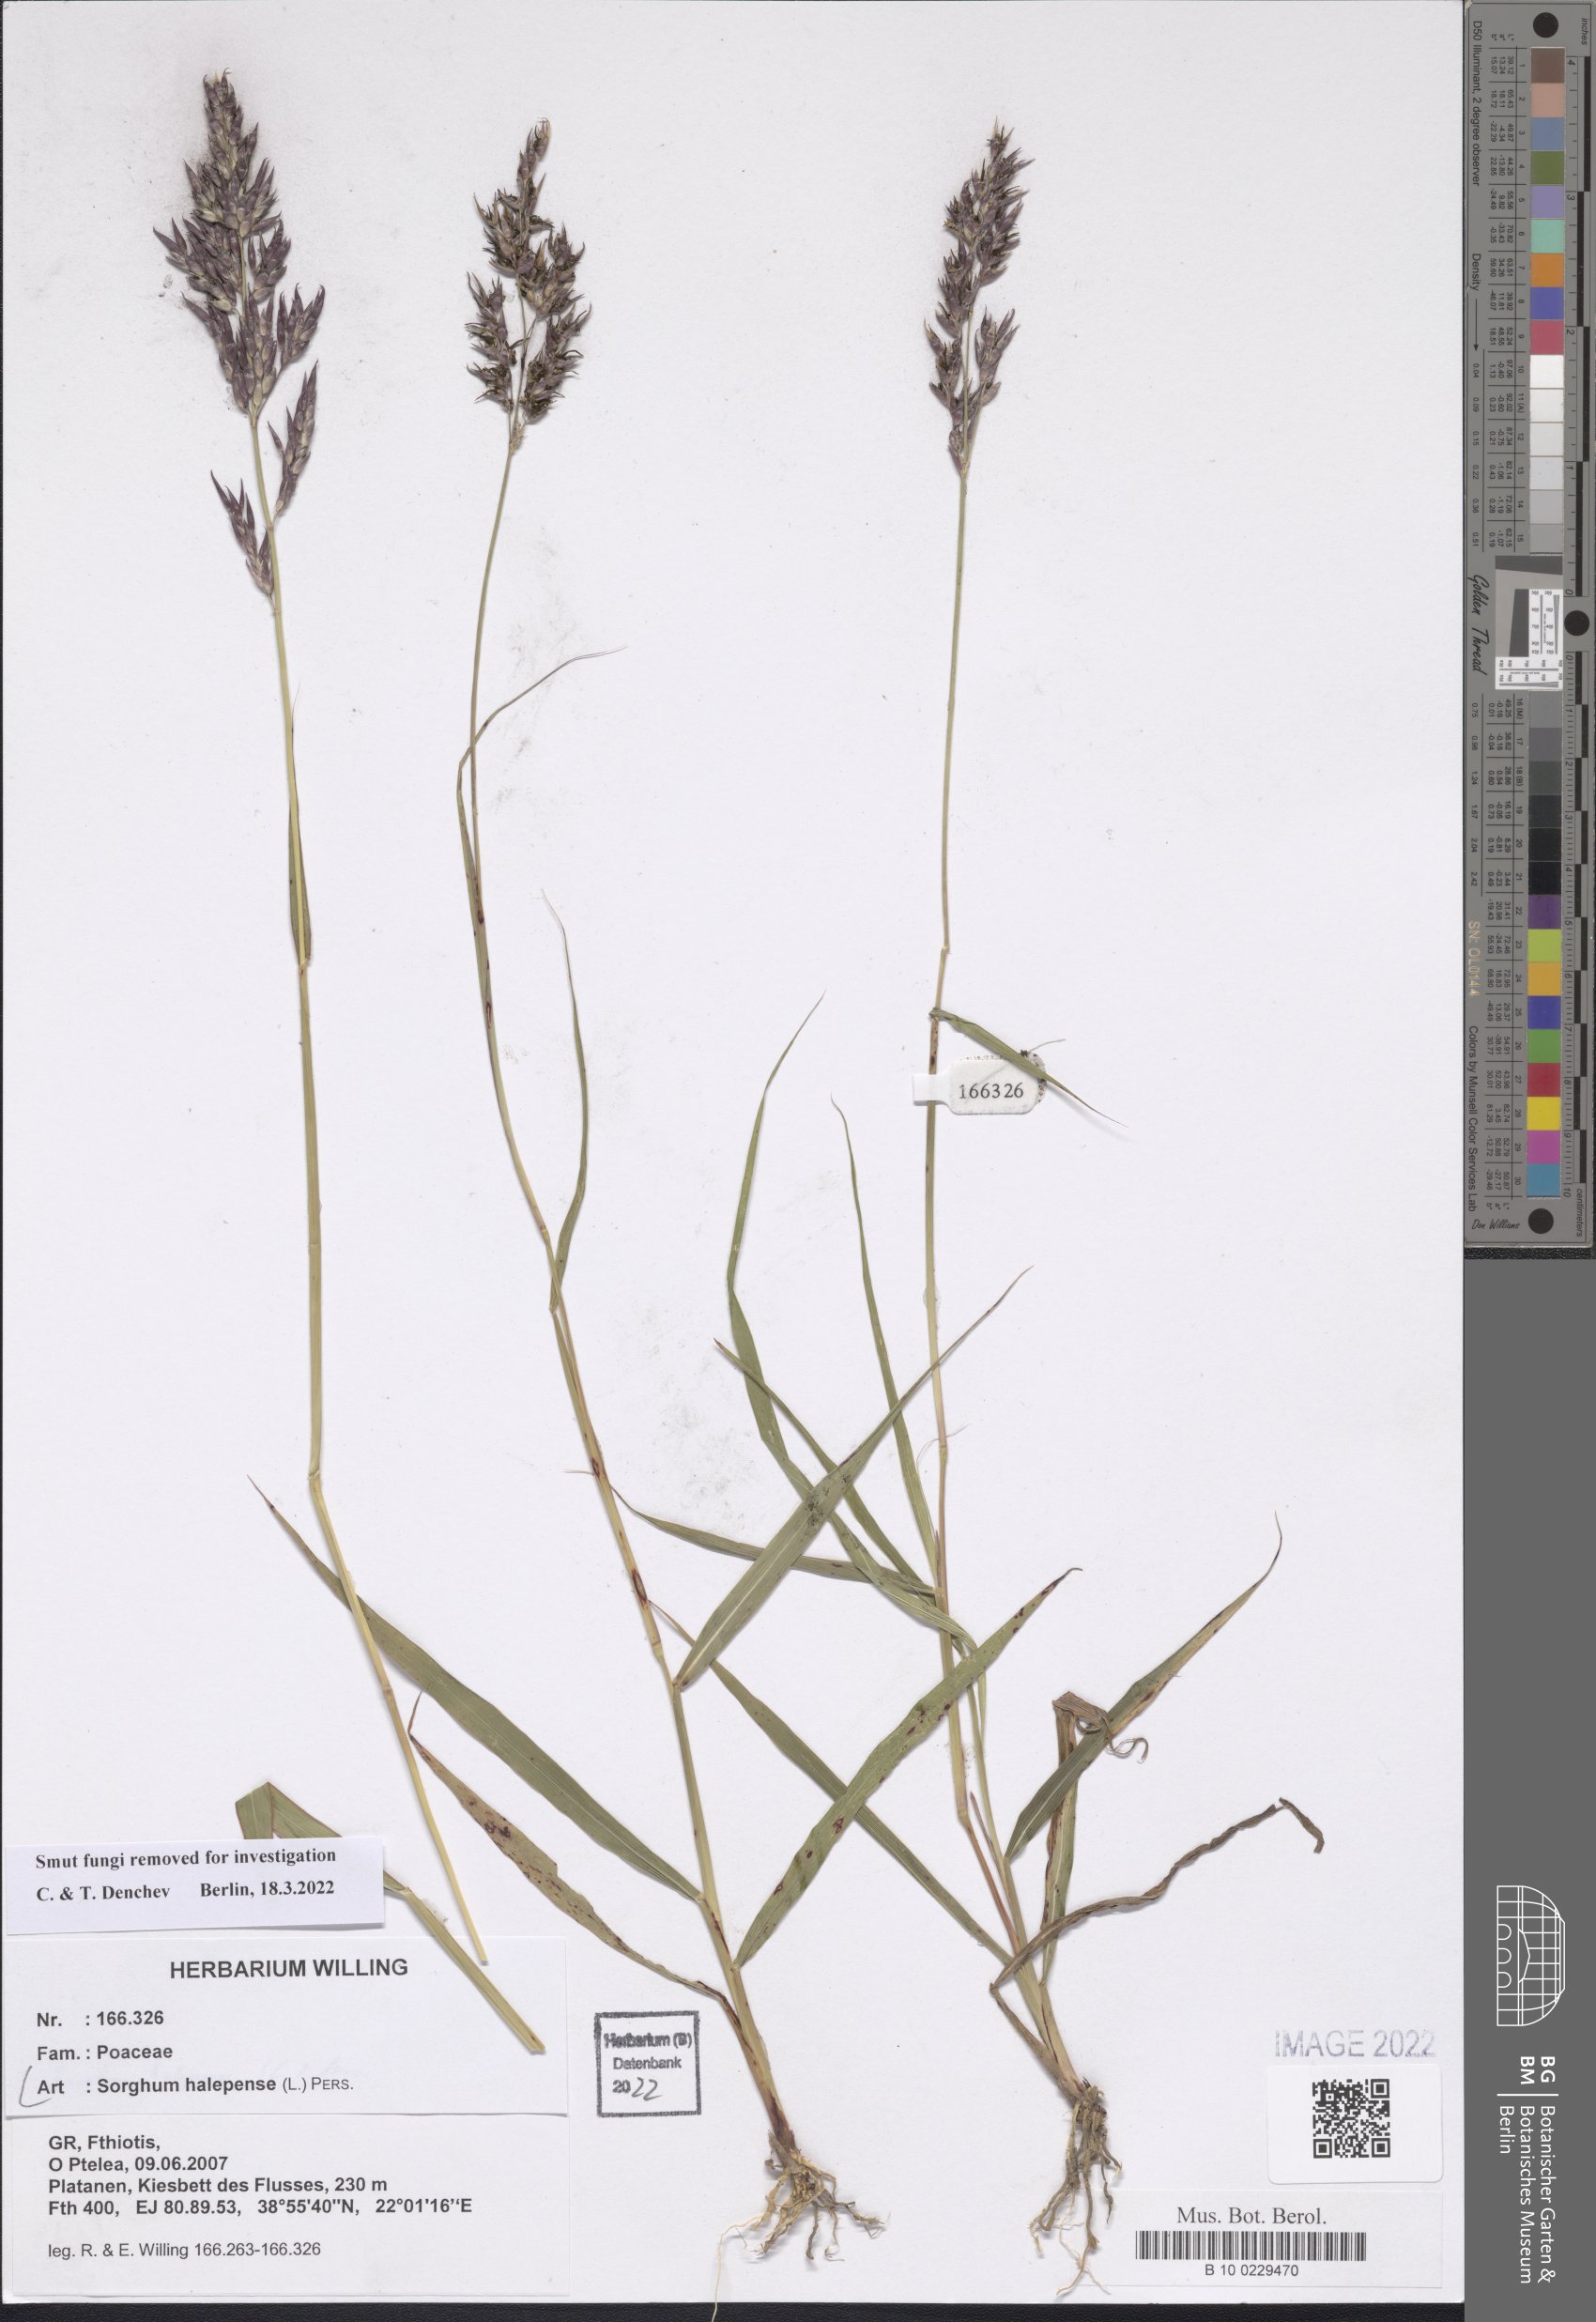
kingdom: Plantae
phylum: Tracheophyta
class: Liliopsida
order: Poales
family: Poaceae
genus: Sorghum
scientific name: Sorghum halepense
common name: Johnson-grass
